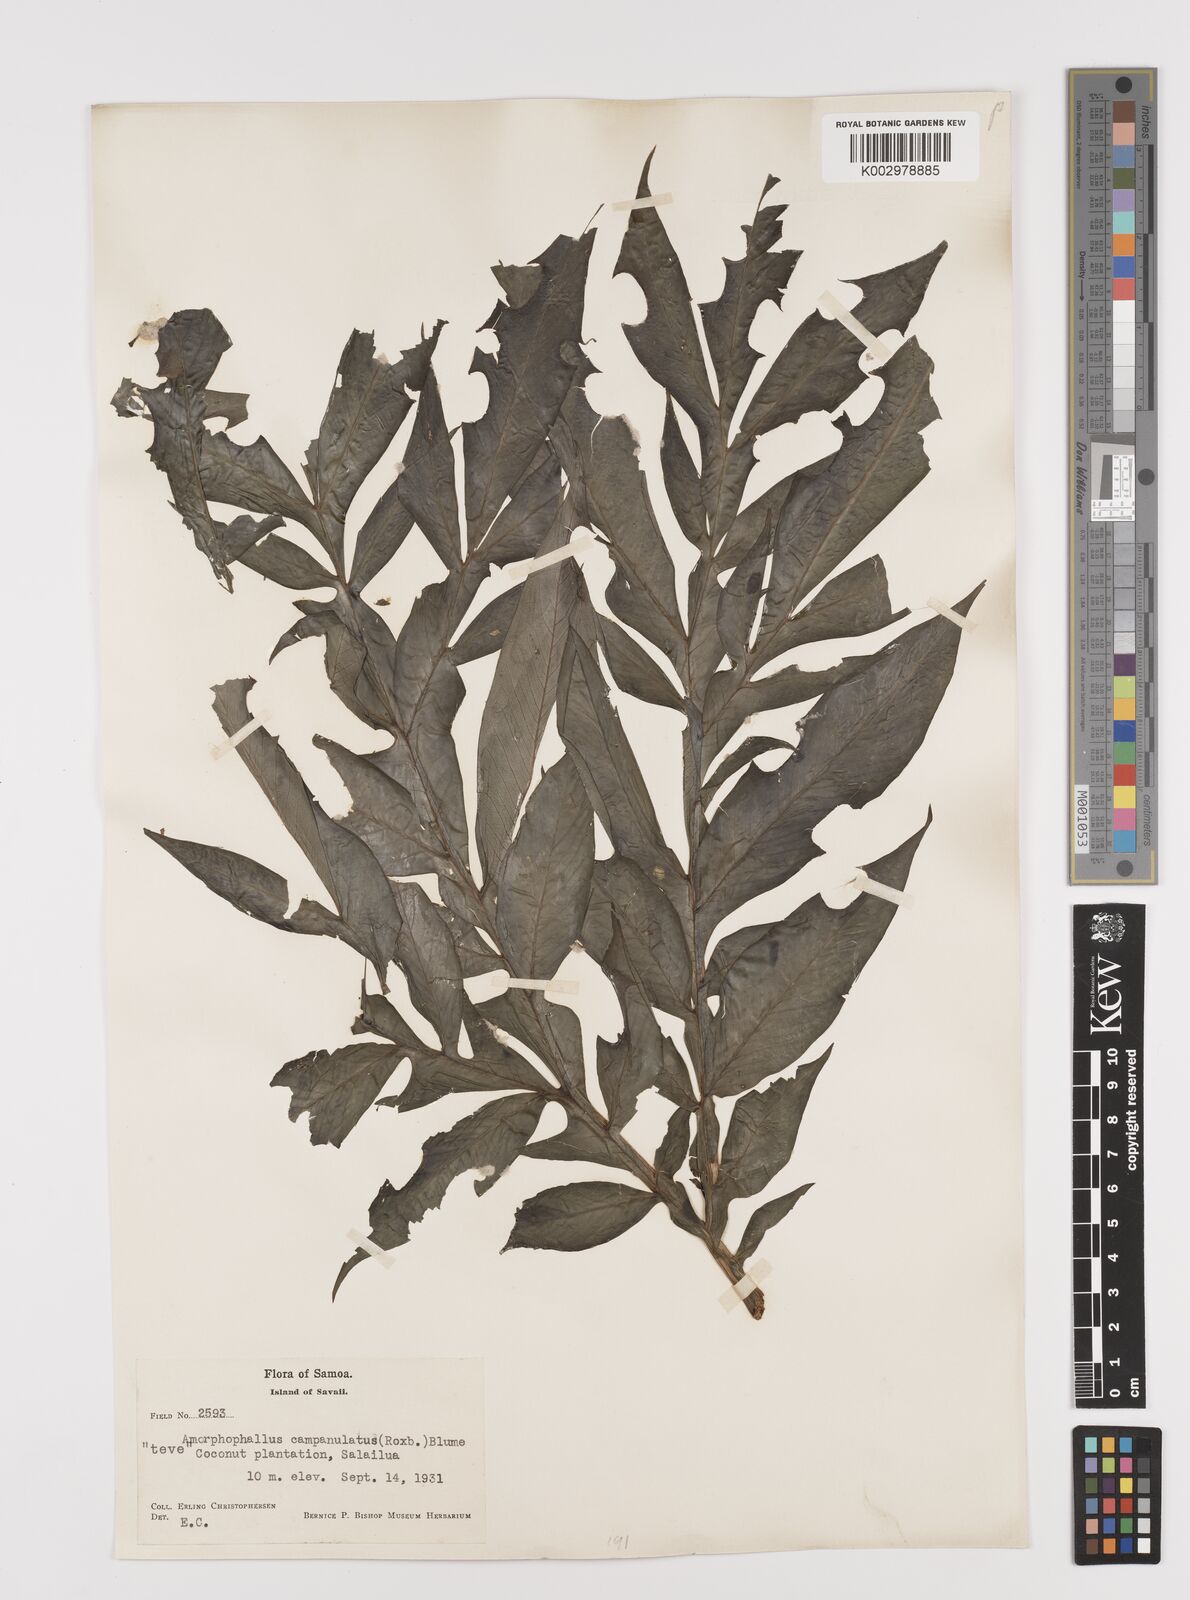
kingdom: Plantae
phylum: Tracheophyta
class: Liliopsida
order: Alismatales
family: Araceae
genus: Amorphophallus
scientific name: Amorphophallus paeoniifolius
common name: Telinga-potato
